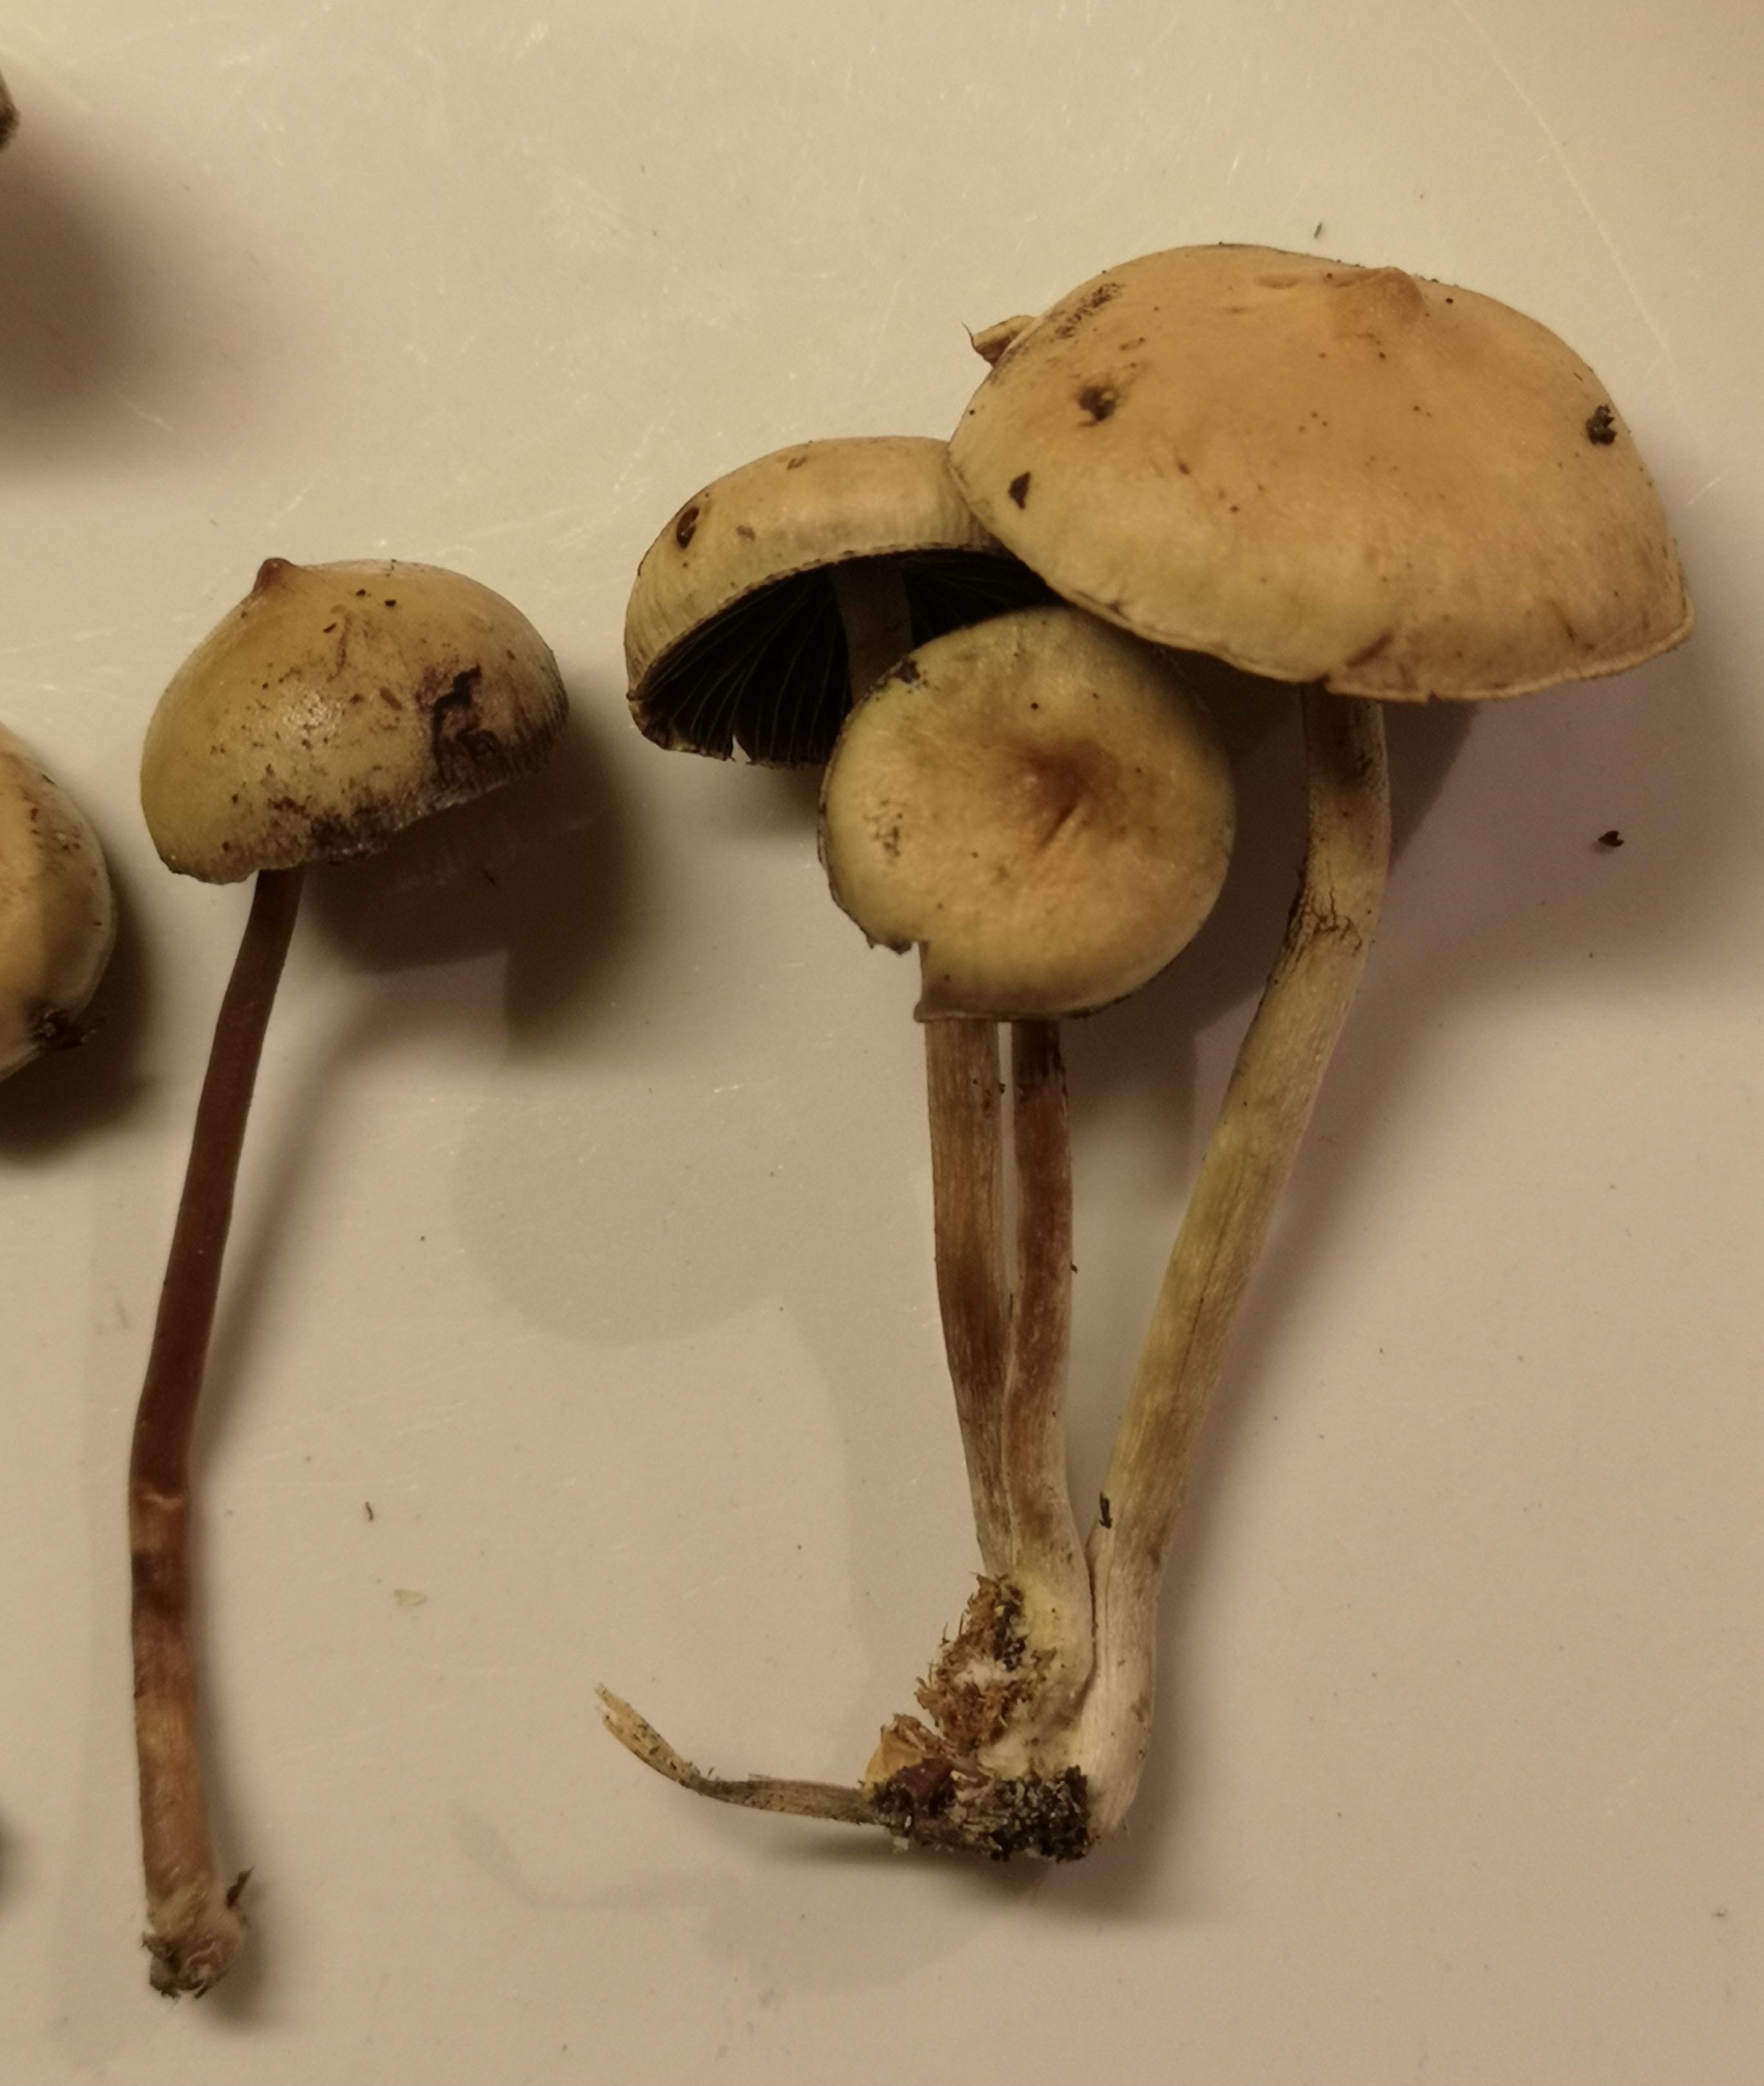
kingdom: Fungi
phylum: Basidiomycota
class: Agaricomycetes
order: Agaricales
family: Strophariaceae
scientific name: Strophariaceae
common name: bredbladfamilien
